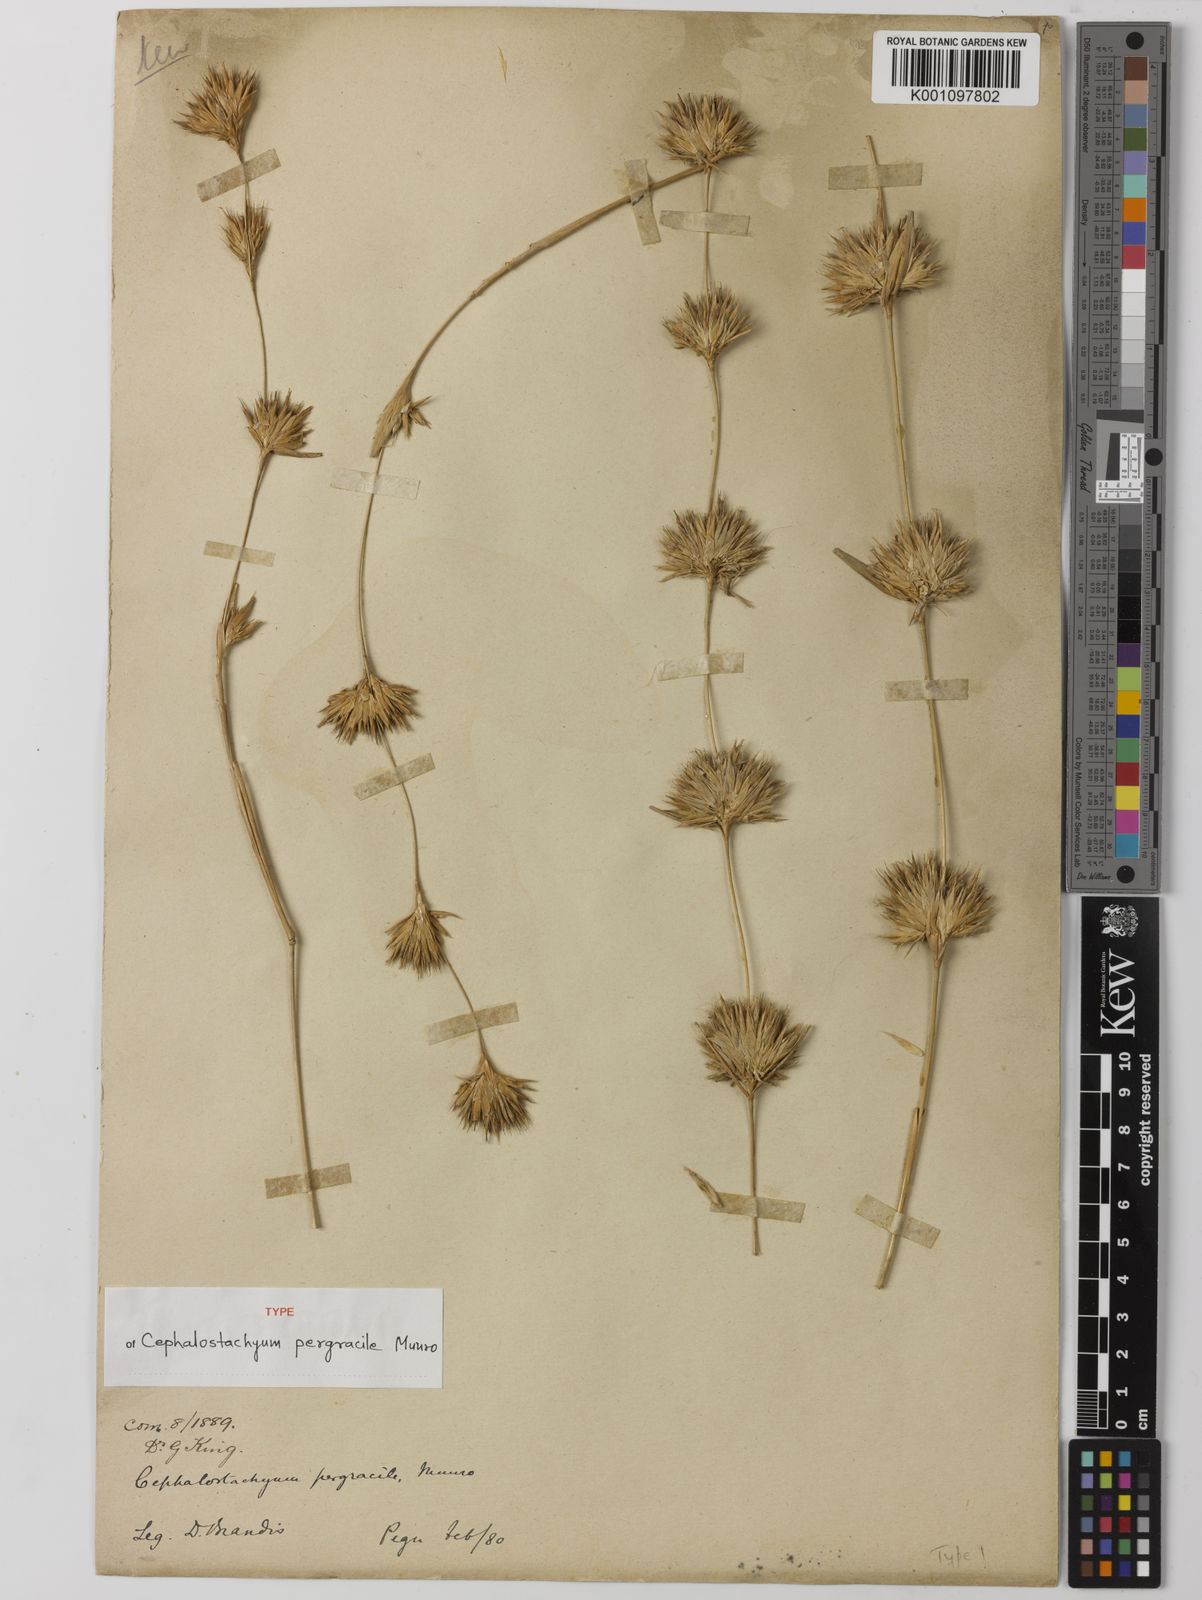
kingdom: Plantae
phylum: Tracheophyta
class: Liliopsida
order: Poales
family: Poaceae
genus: Schizostachyum
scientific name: Schizostachyum pergracile
